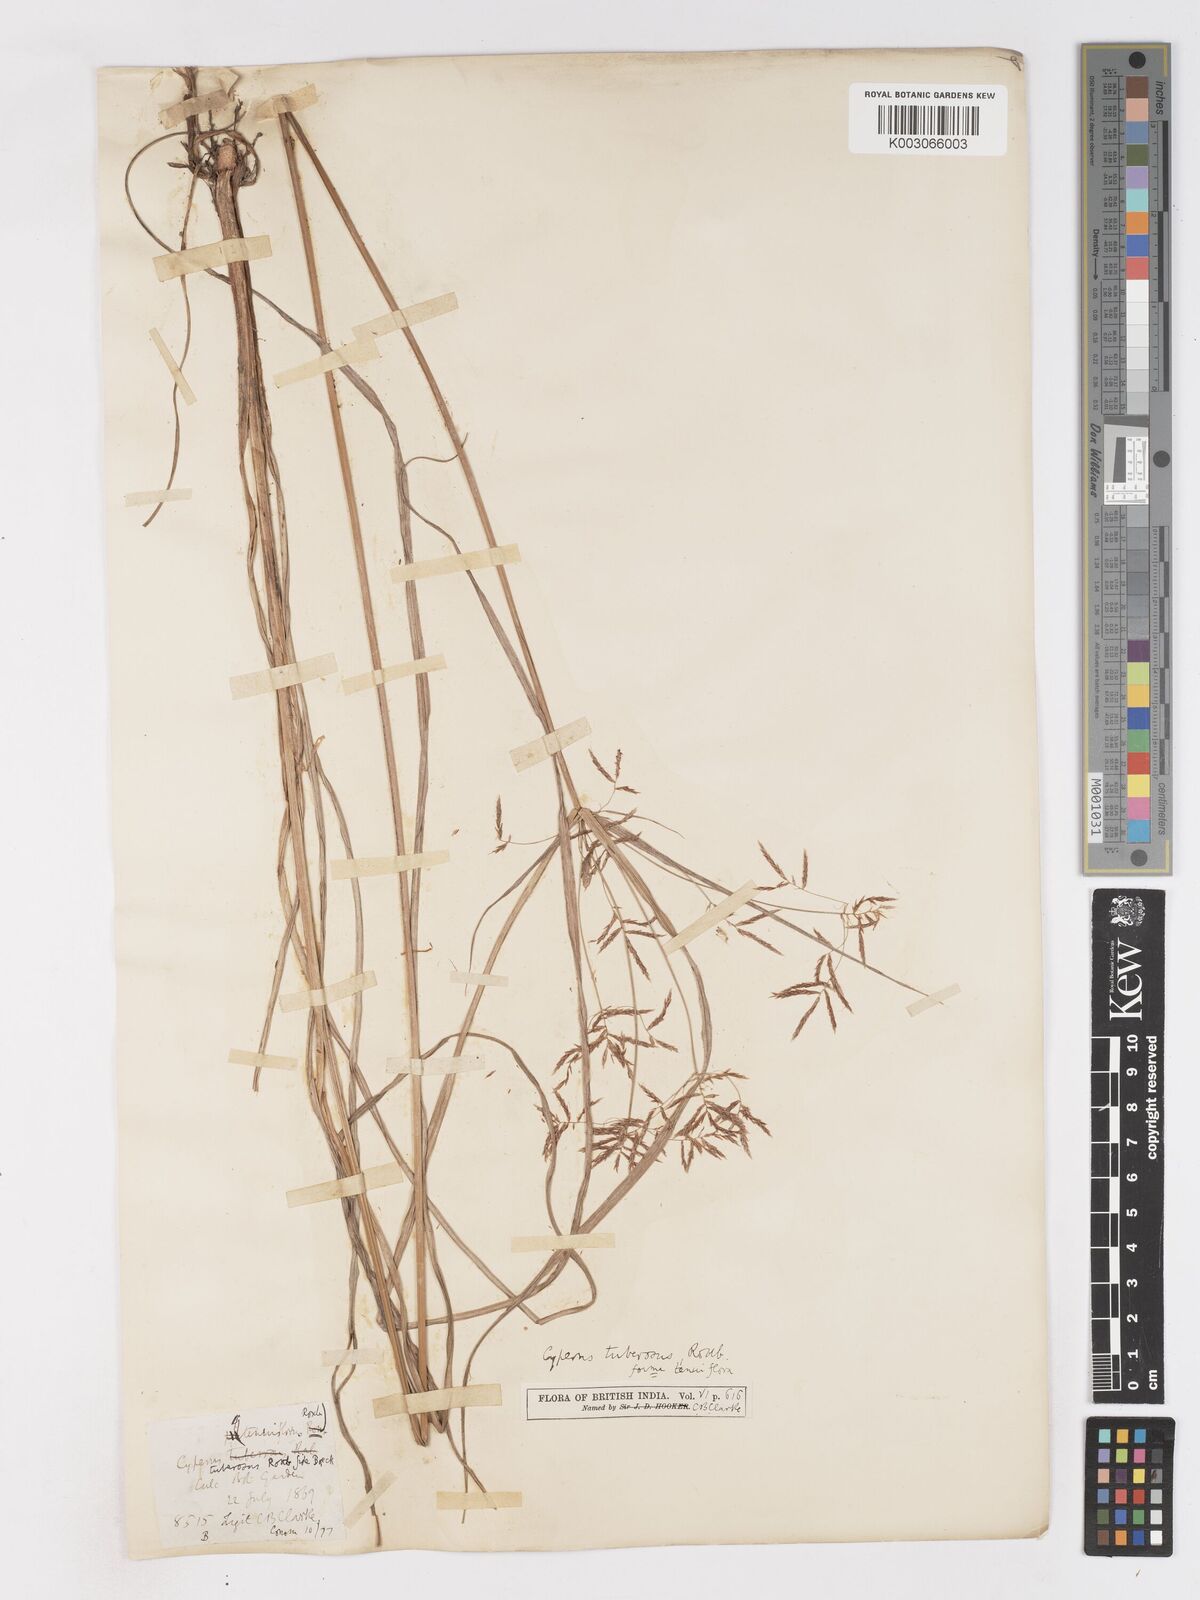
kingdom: Plantae
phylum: Tracheophyta
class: Liliopsida
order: Poales
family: Cyperaceae
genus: Cyperus
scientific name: Cyperus mitis
